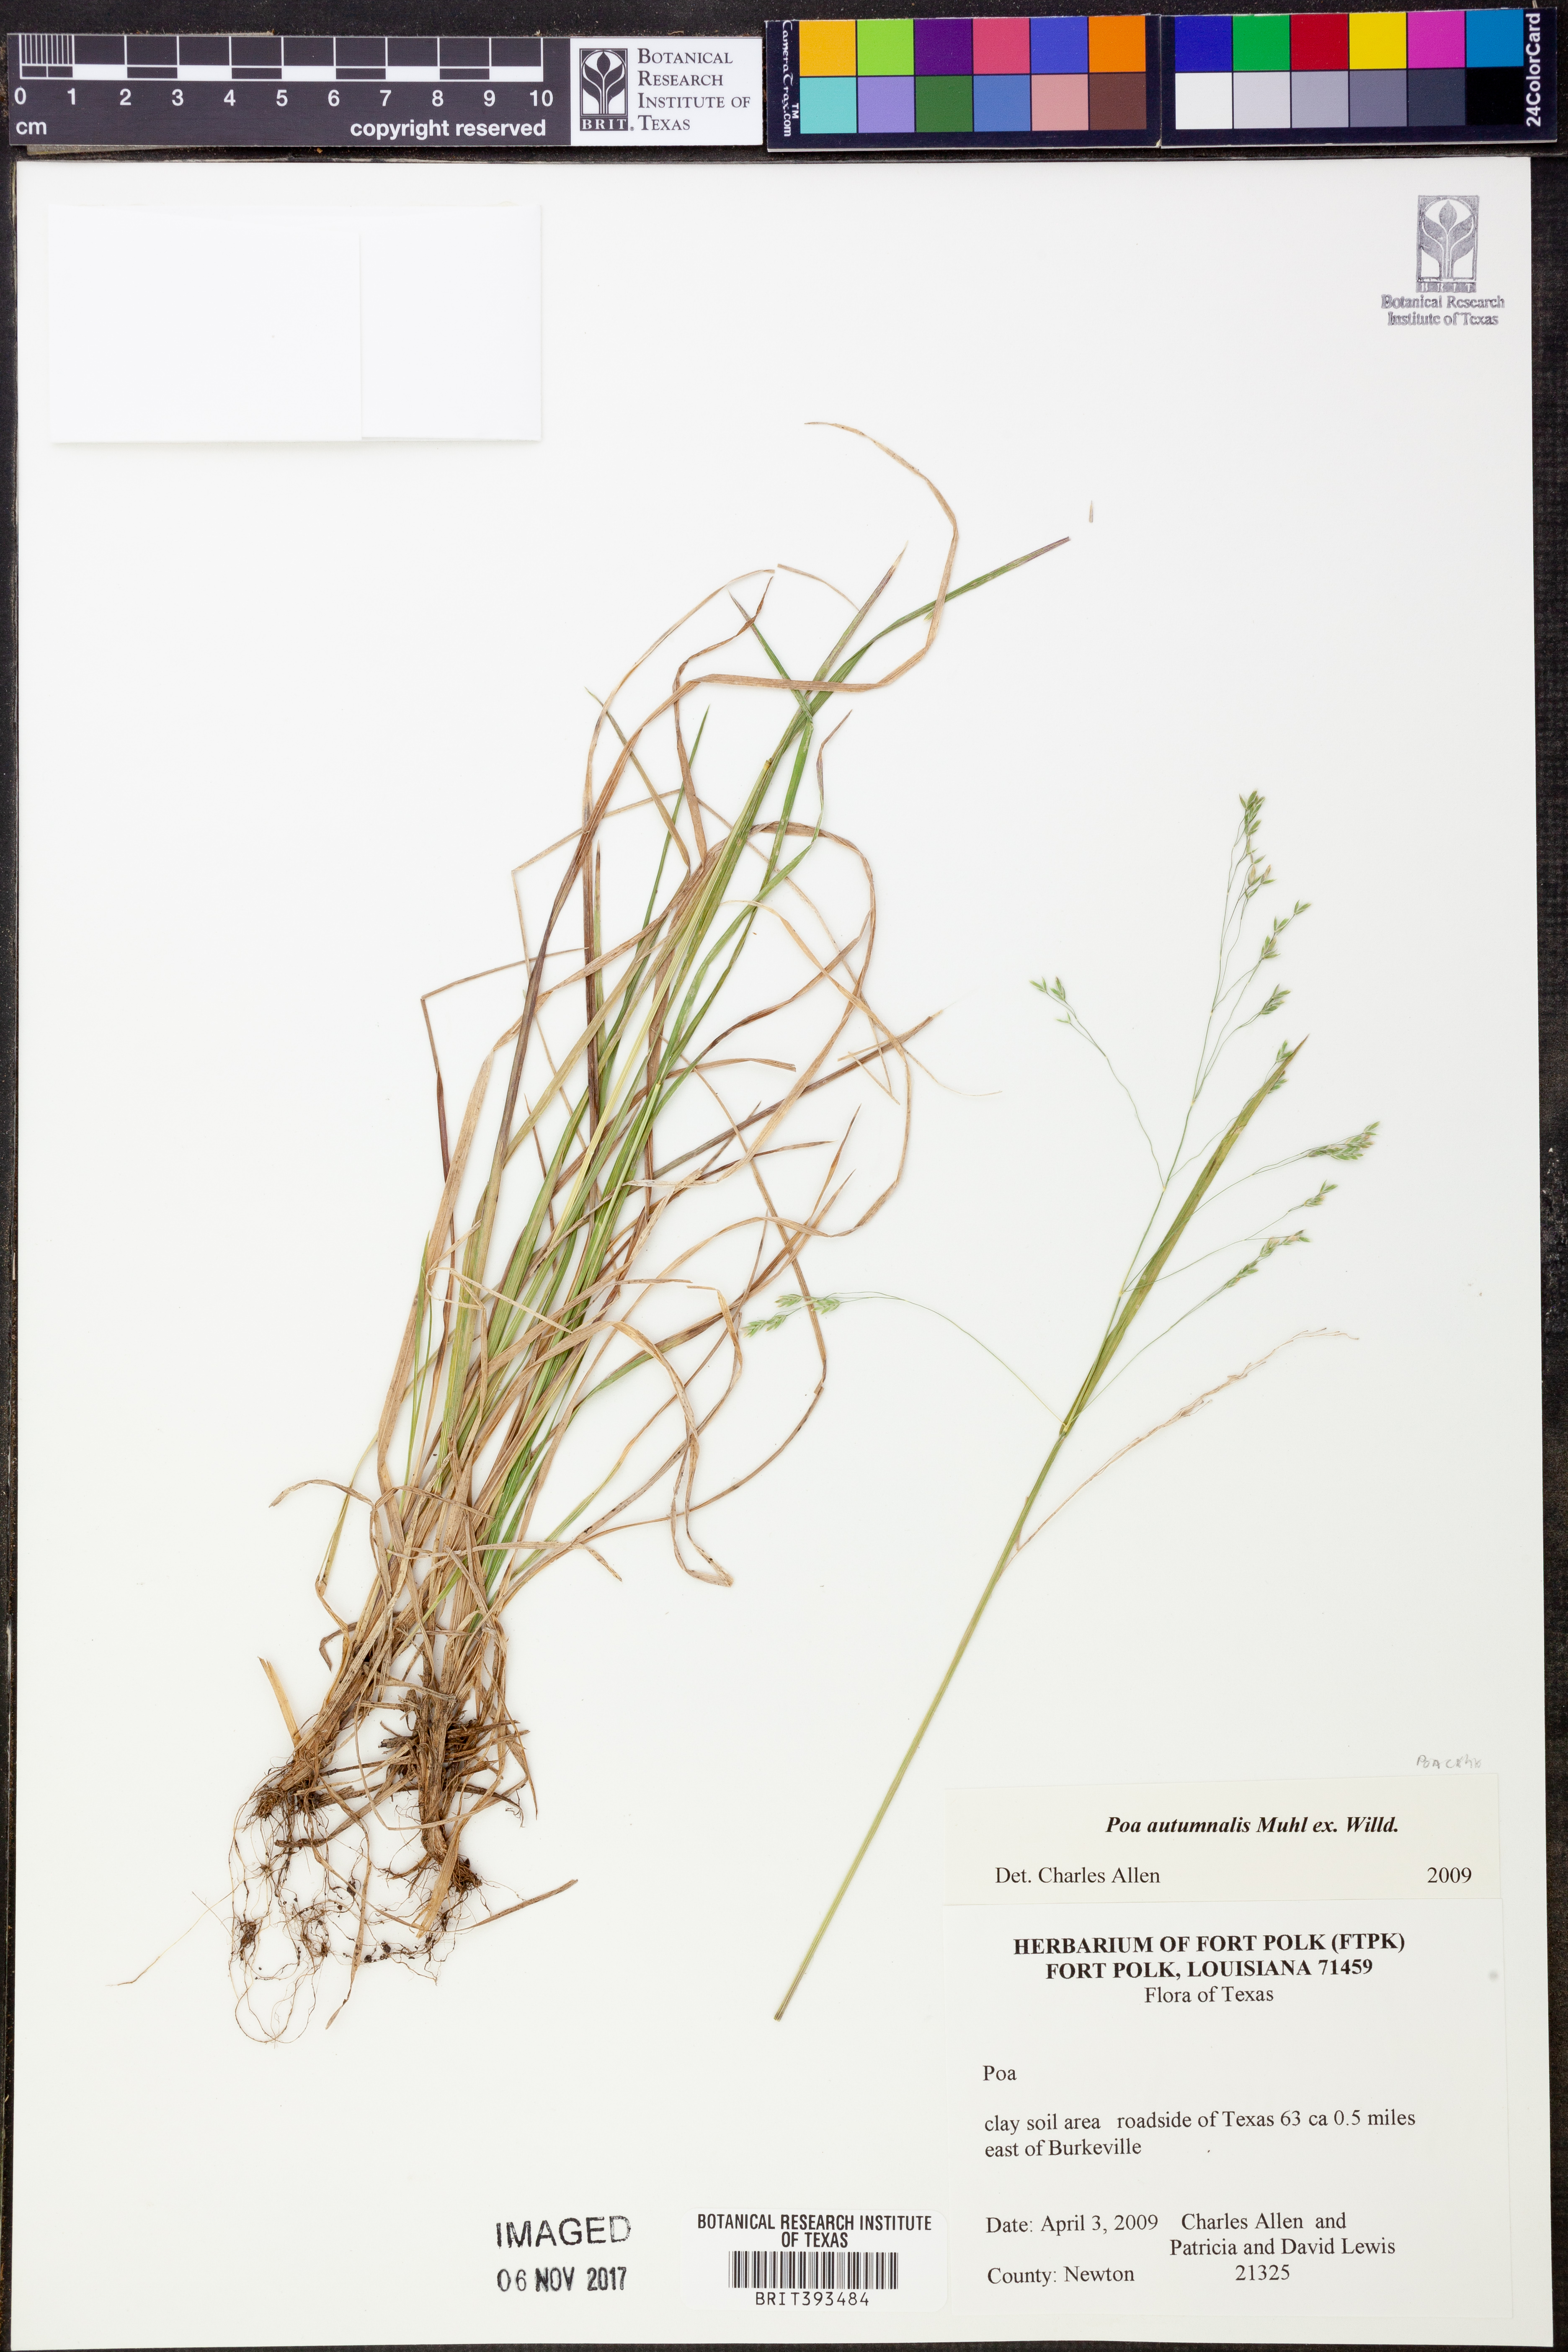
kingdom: Plantae
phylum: Tracheophyta
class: Liliopsida
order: Poales
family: Poaceae
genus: Poa
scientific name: Poa autumnalis
